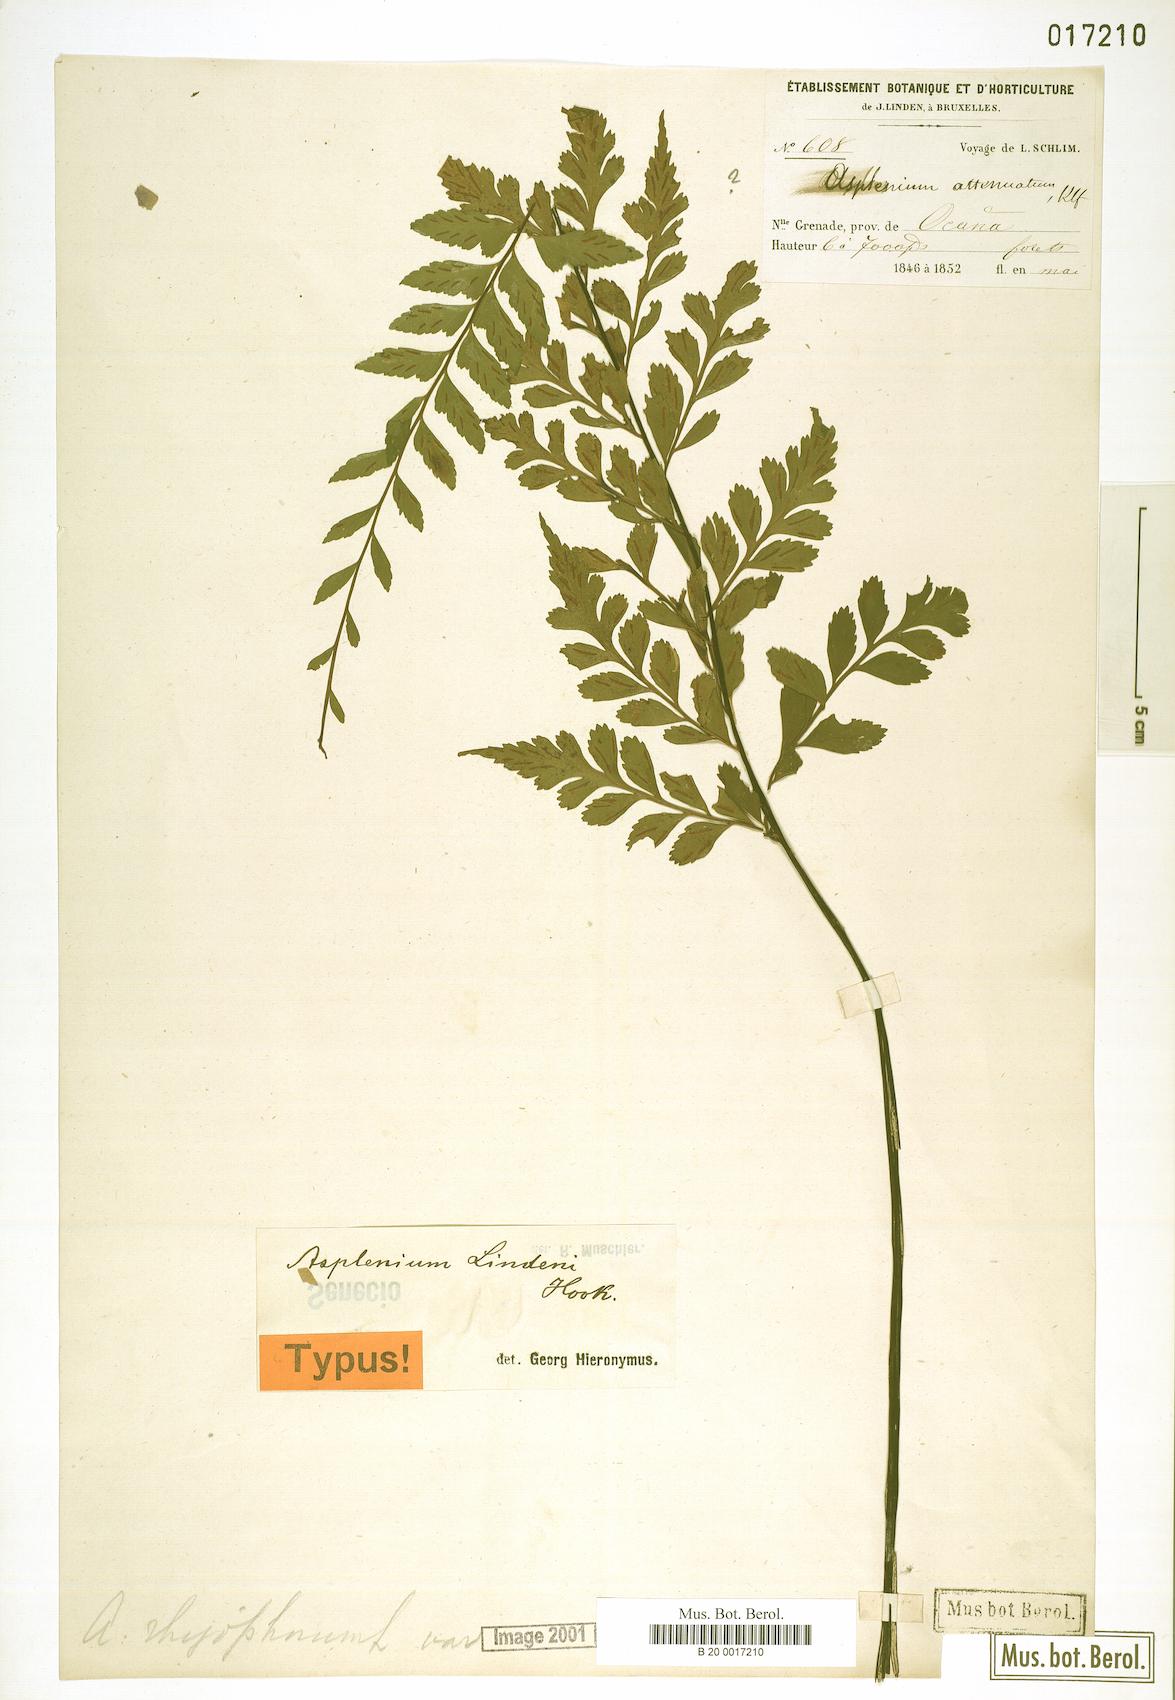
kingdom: Plantae
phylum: Tracheophyta
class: Polypodiopsida
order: Polypodiales
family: Aspleniaceae
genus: Asplenium
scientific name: Asplenium scolopendrium
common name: Hart's-tongue fern
